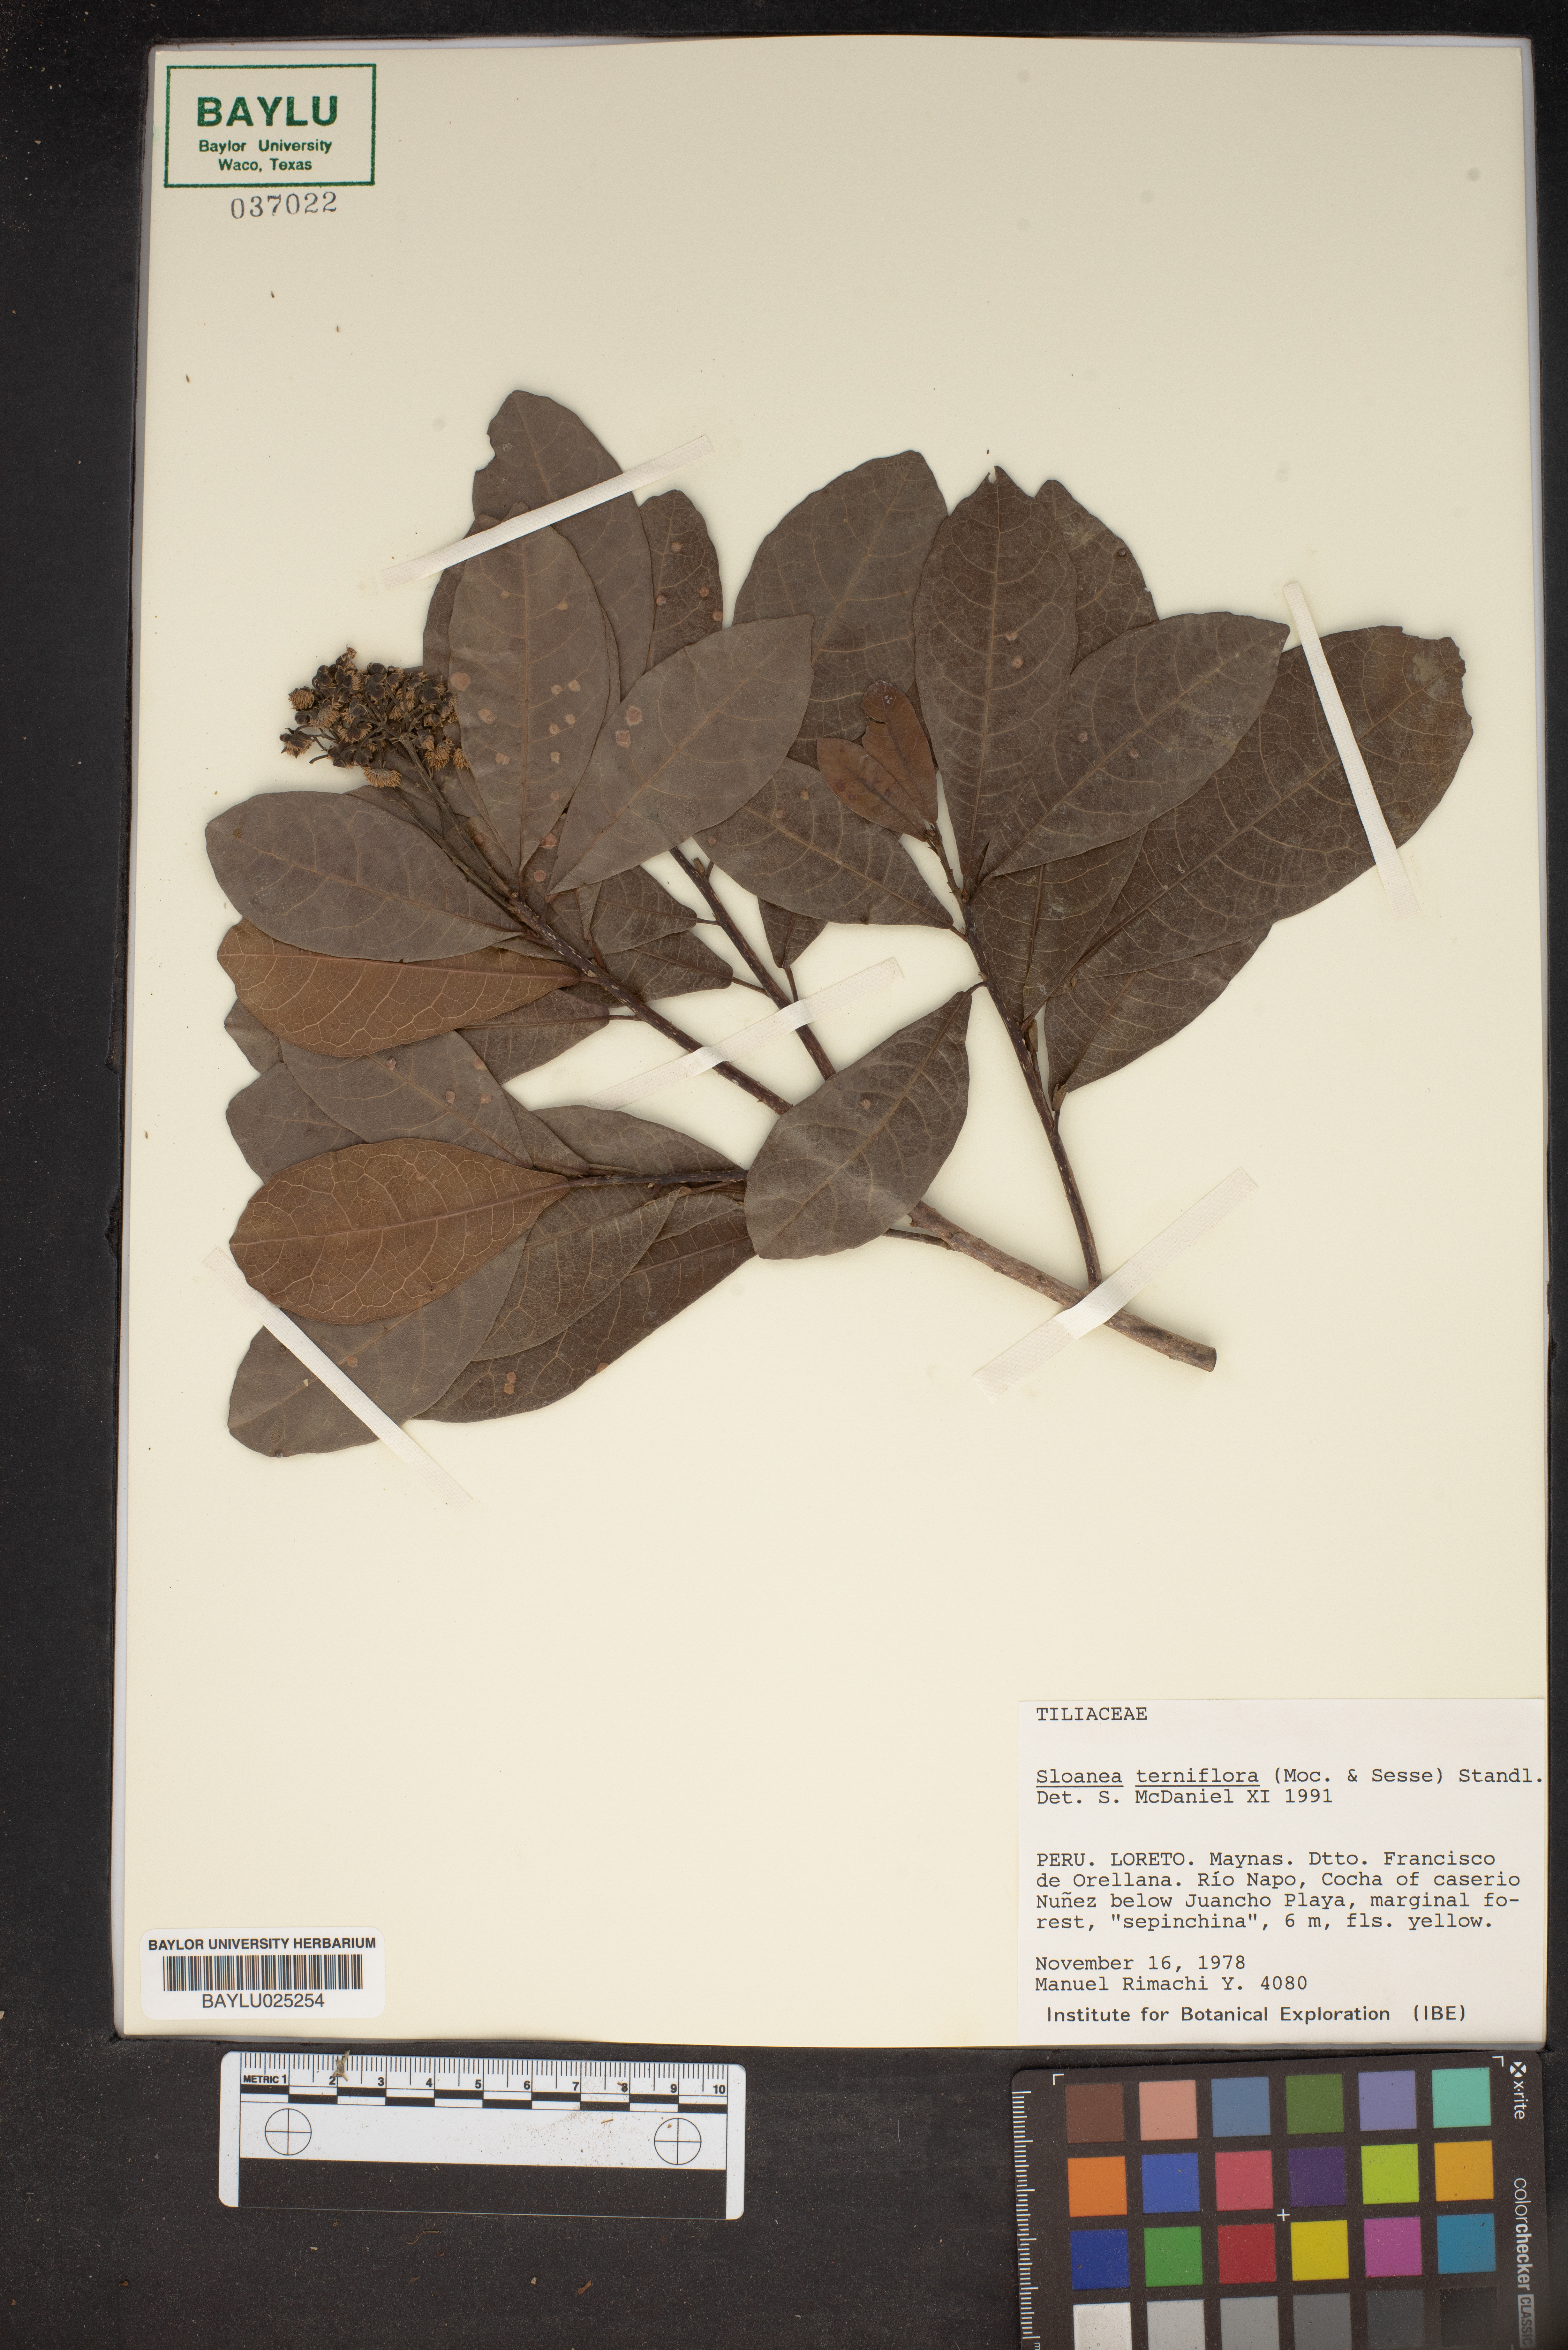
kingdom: Plantae
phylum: Tracheophyta
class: Magnoliopsida
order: Oxalidales
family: Elaeocarpaceae
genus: Sloanea
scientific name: Sloanea terniflora
